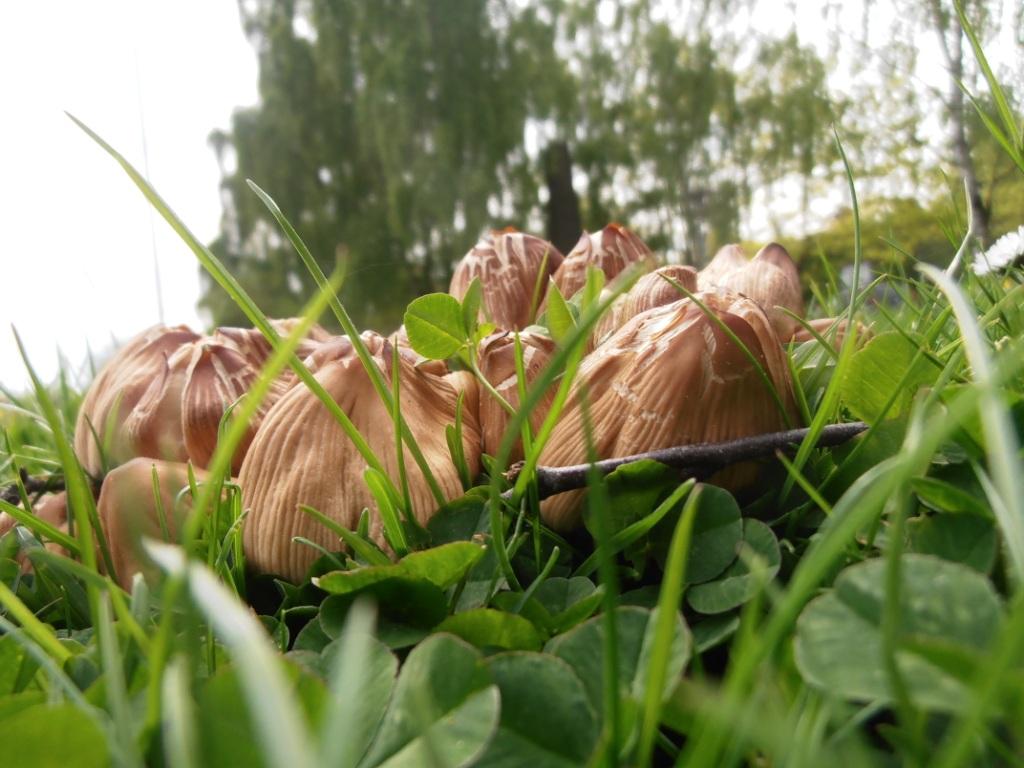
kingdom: Fungi
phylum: Basidiomycota
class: Agaricomycetes
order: Agaricales
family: Psathyrellaceae
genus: Coprinellus
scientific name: Coprinellus micaceus
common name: glimmer-blækhat
